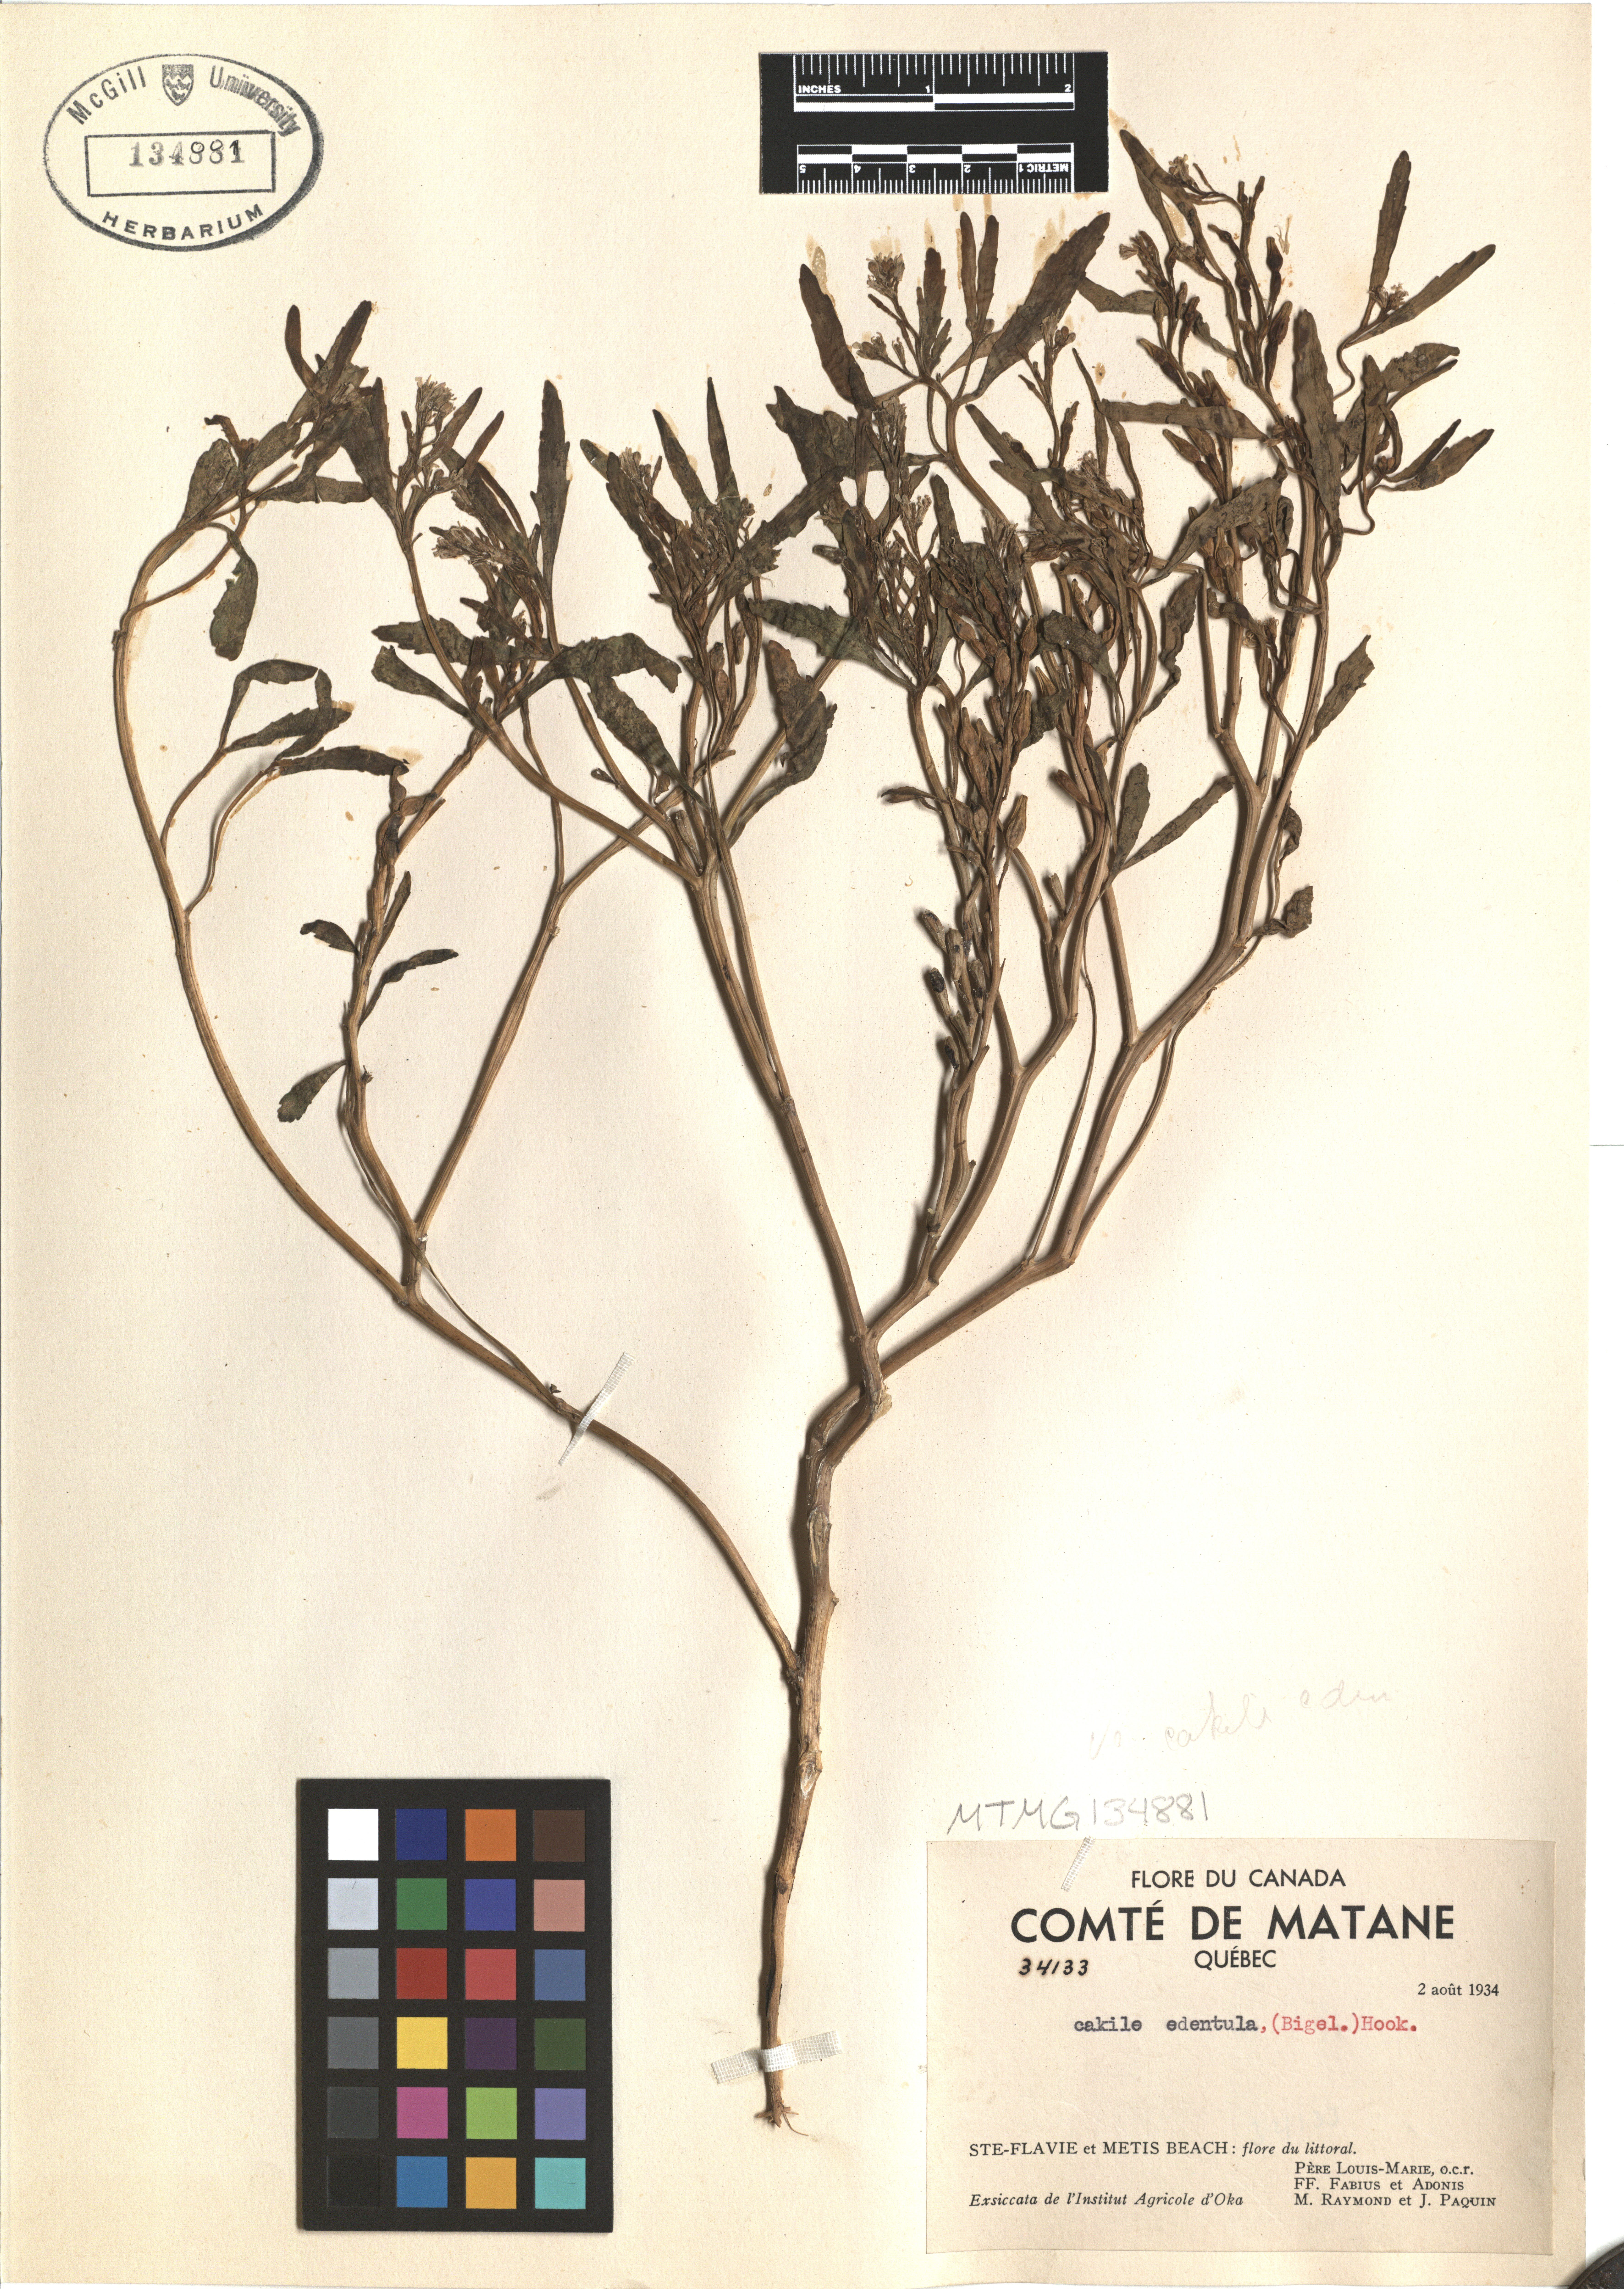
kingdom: Plantae
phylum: Tracheophyta
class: Magnoliopsida
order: Brassicales
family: Brassicaceae
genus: Cakile
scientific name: Cakile edentula
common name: American sea rocket
